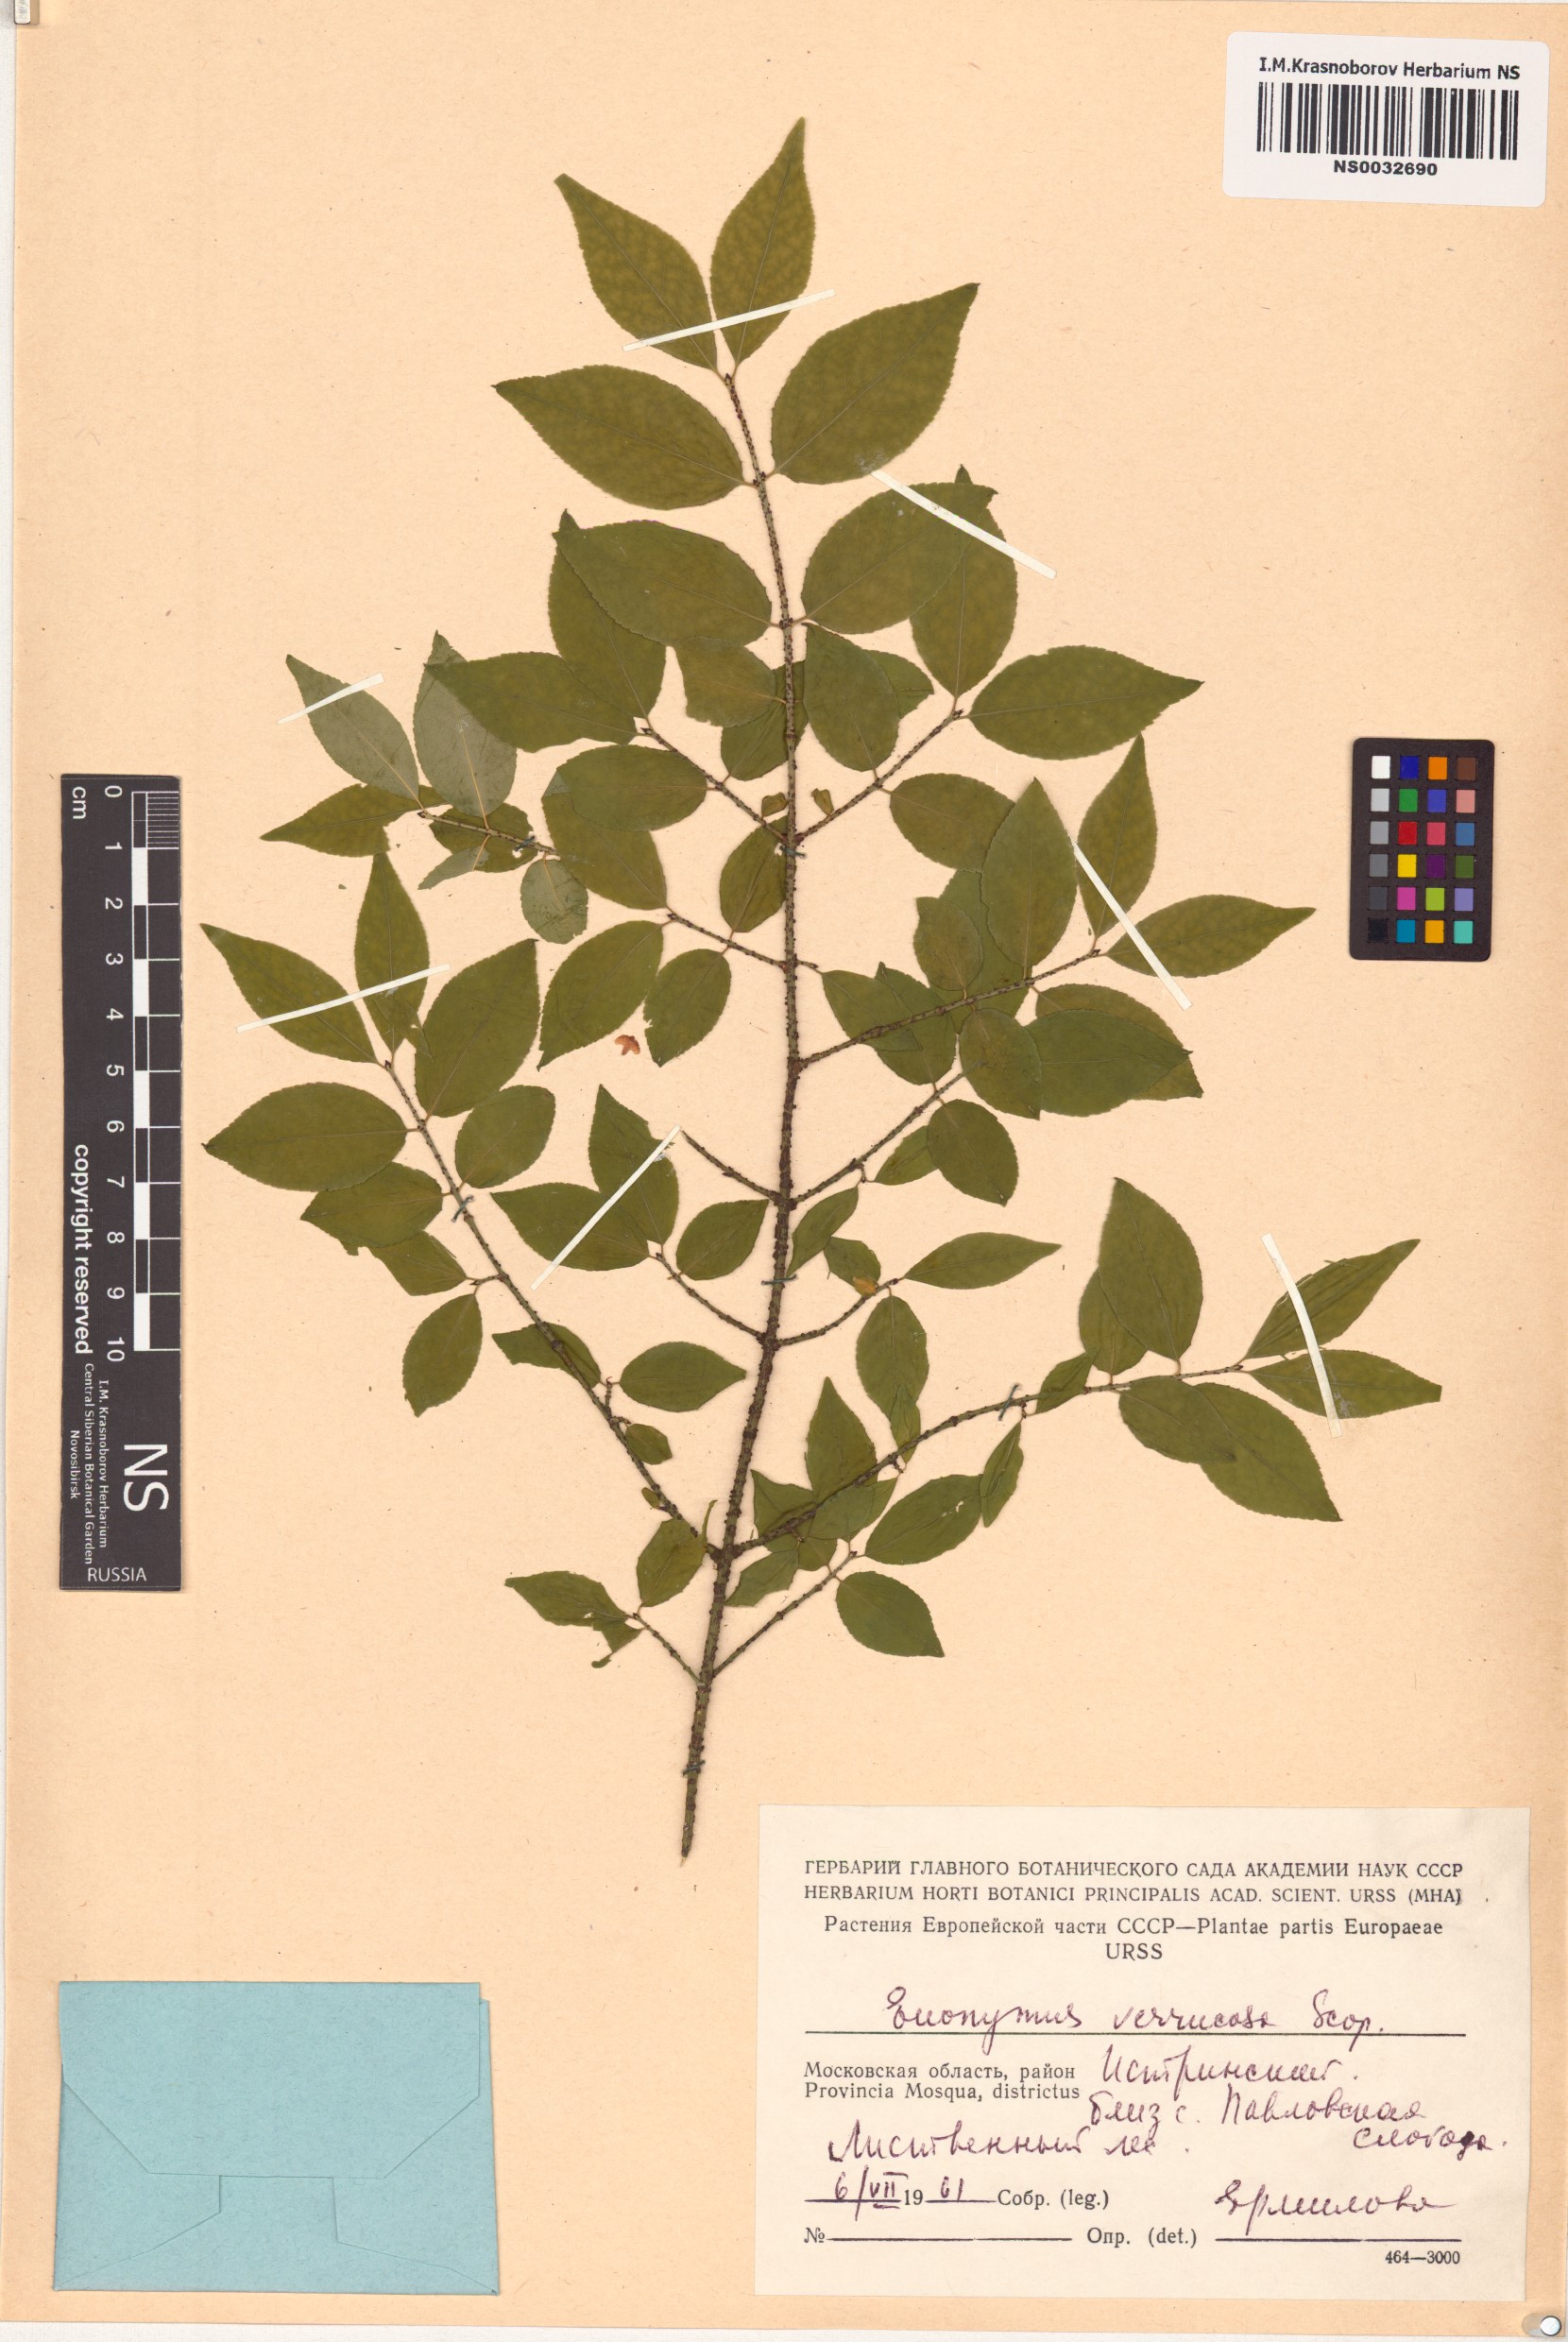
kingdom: Plantae
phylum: Tracheophyta
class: Magnoliopsida
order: Celastrales
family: Celastraceae
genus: Euonymus
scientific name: Euonymus verrucosus
